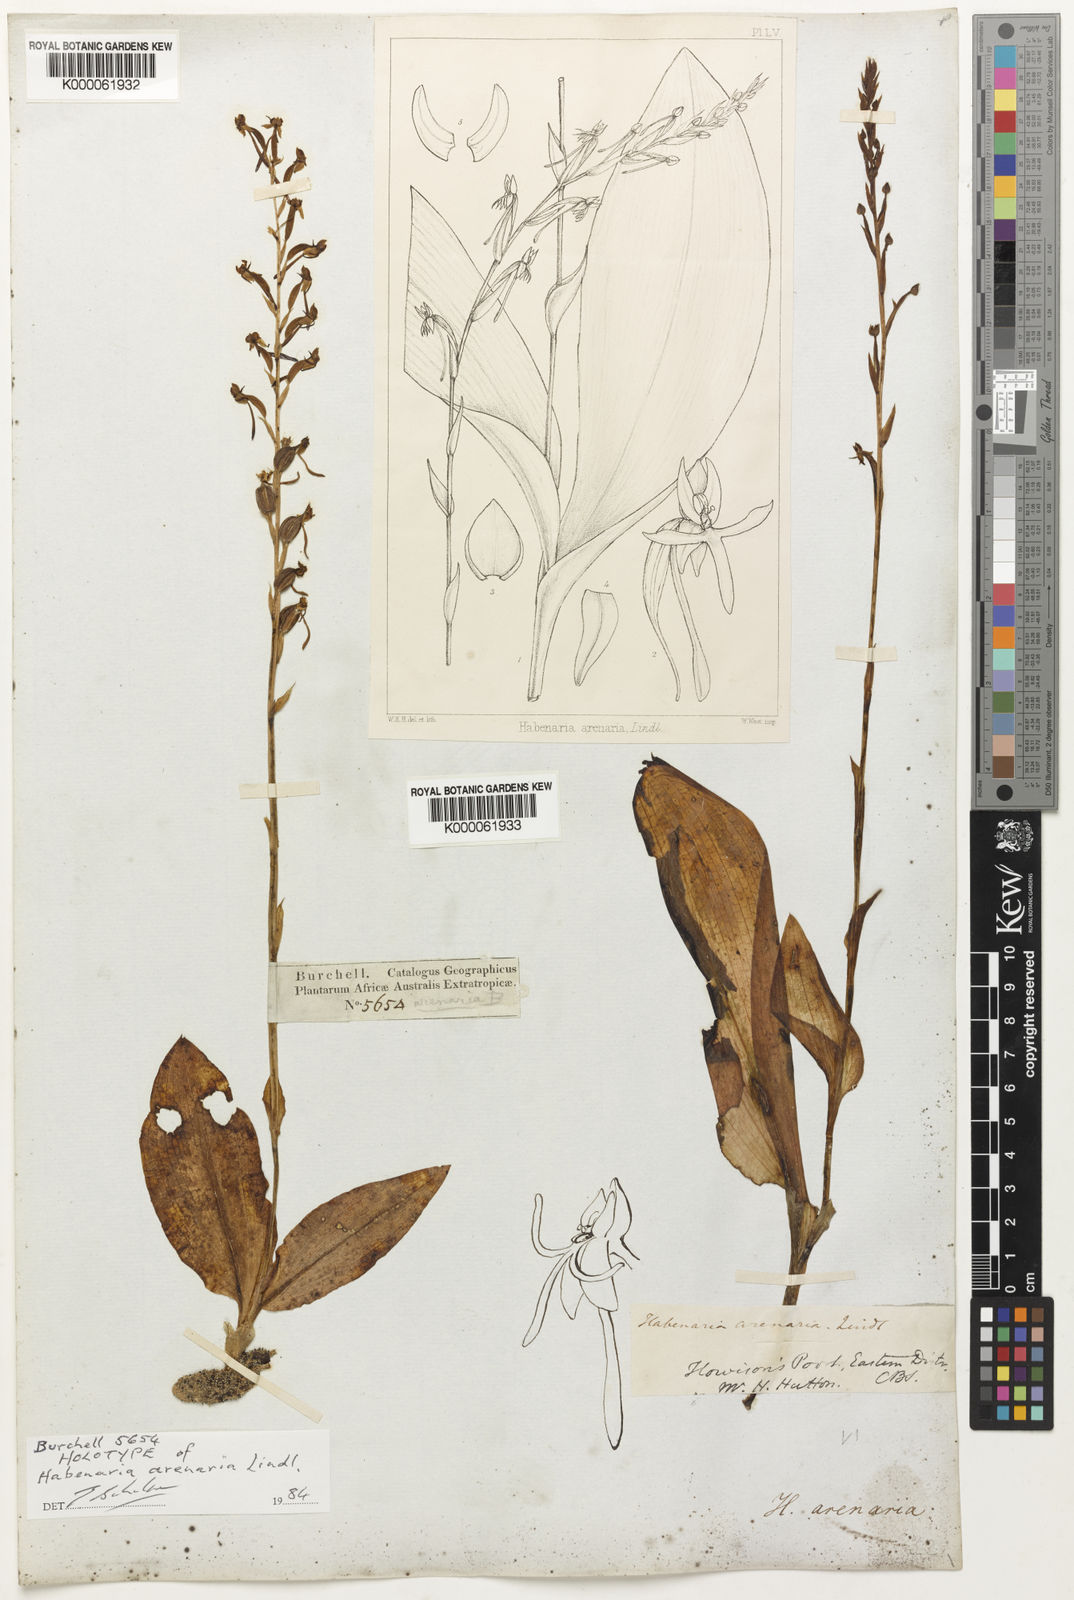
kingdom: Plantae
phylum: Tracheophyta
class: Liliopsida
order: Asparagales
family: Orchidaceae
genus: Habenaria
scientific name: Habenaria arenaria
